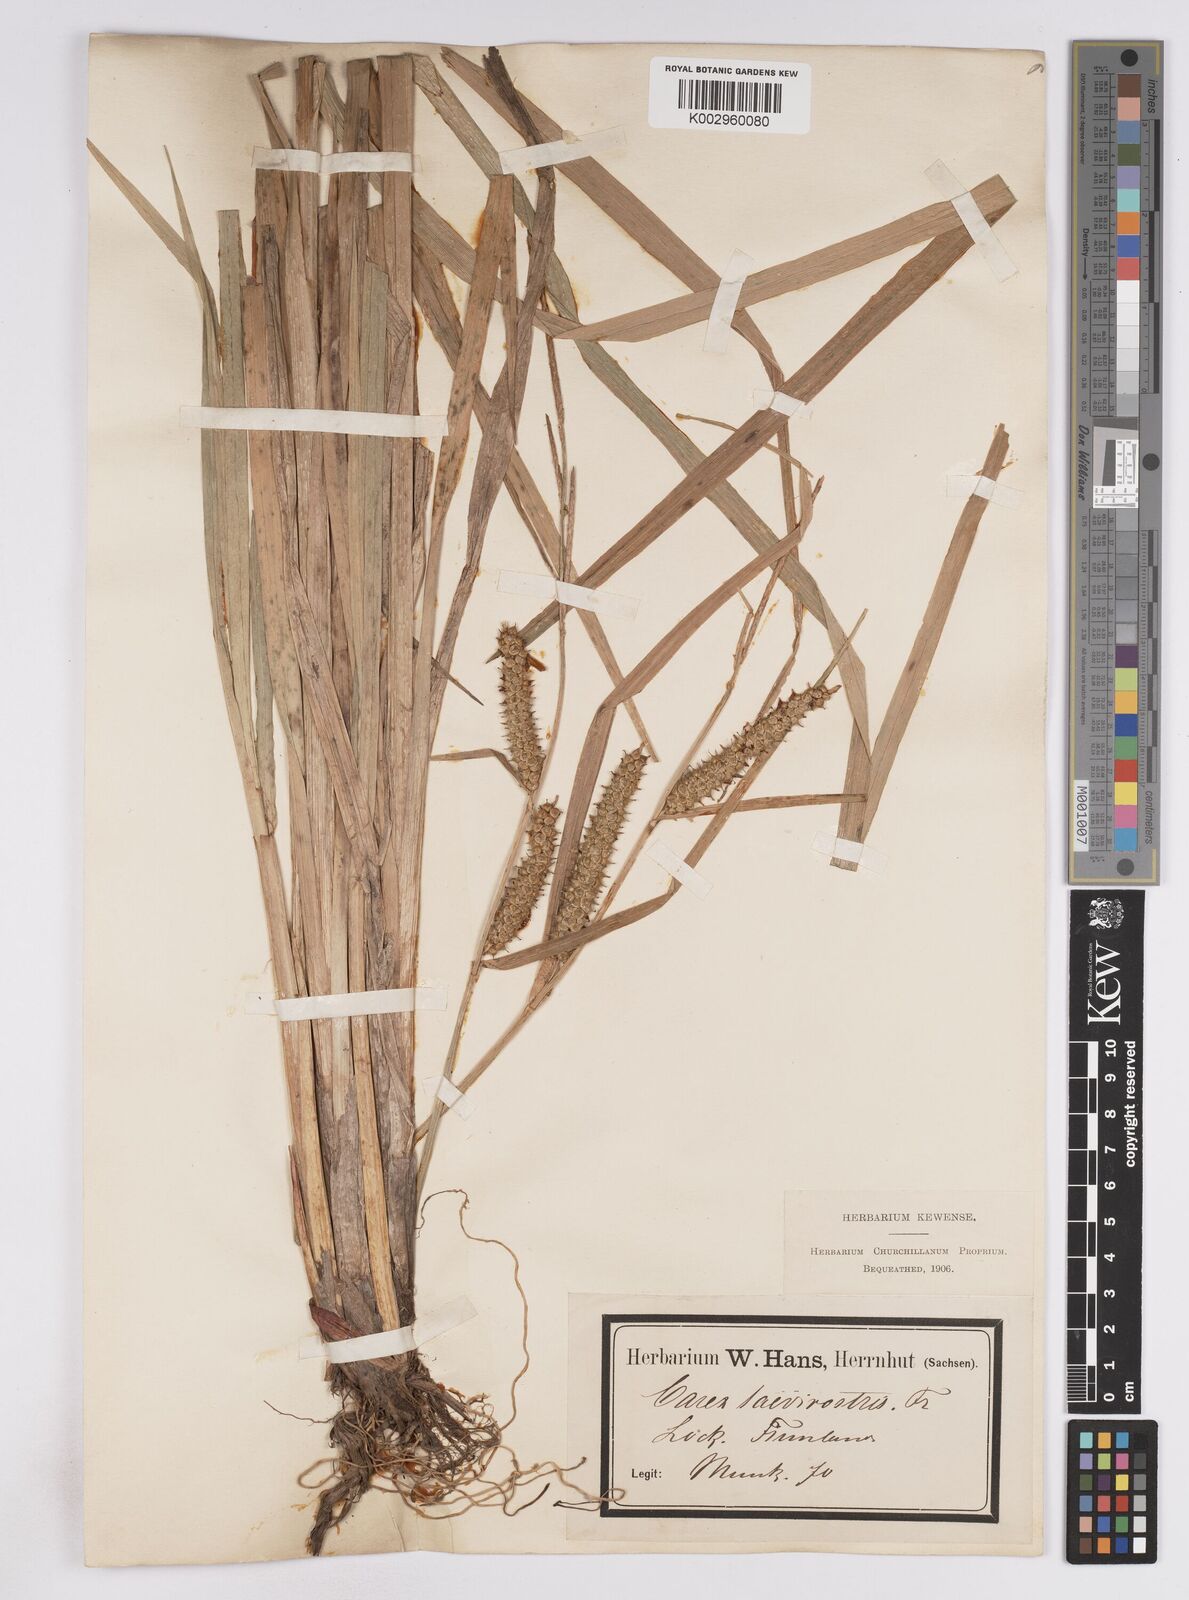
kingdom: Plantae
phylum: Tracheophyta
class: Liliopsida
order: Poales
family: Cyperaceae
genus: Carex
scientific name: Carex utriculata
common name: Beaked sedge
